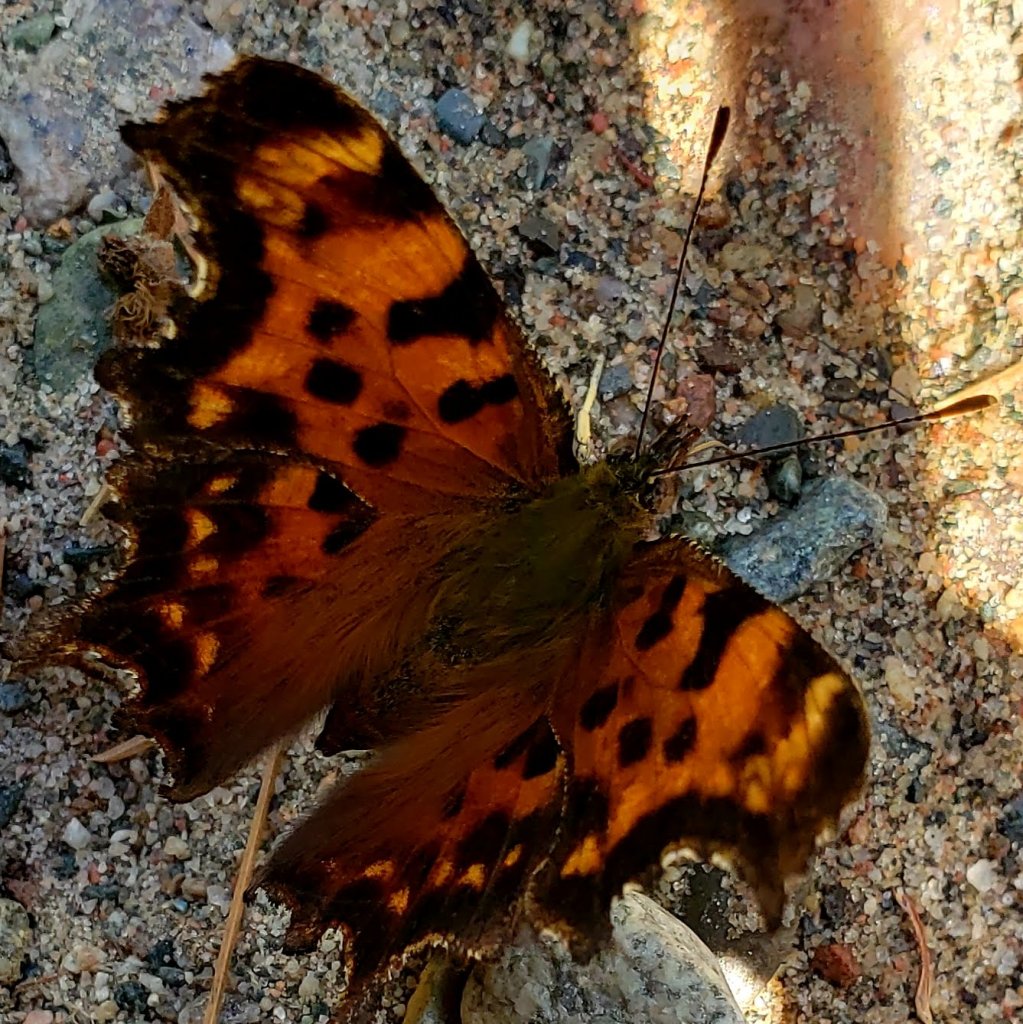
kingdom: Animalia
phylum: Arthropoda
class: Insecta
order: Lepidoptera
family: Nymphalidae
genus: Polygonia
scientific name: Polygonia faunus
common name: Green Comma
